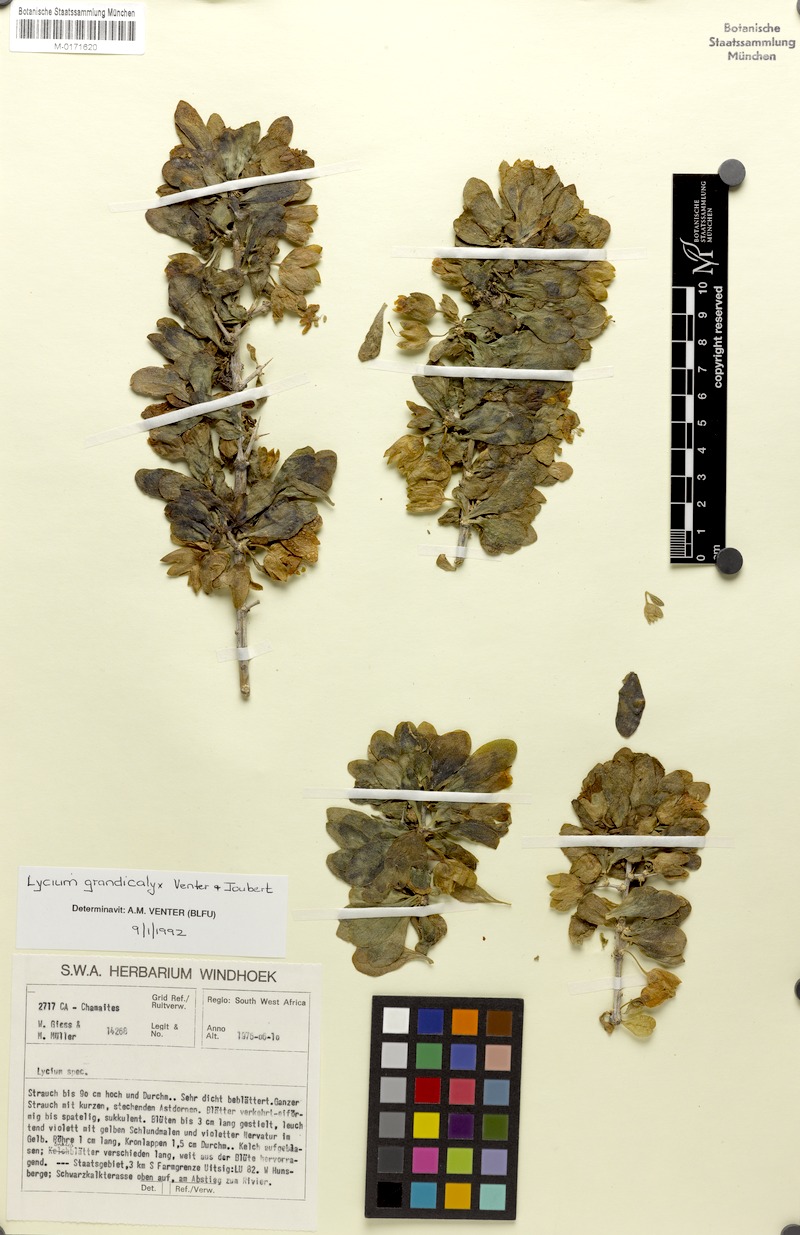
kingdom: Plantae
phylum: Tracheophyta
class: Magnoliopsida
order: Solanales
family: Solanaceae
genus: Lycium
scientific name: Lycium grandicalyx
